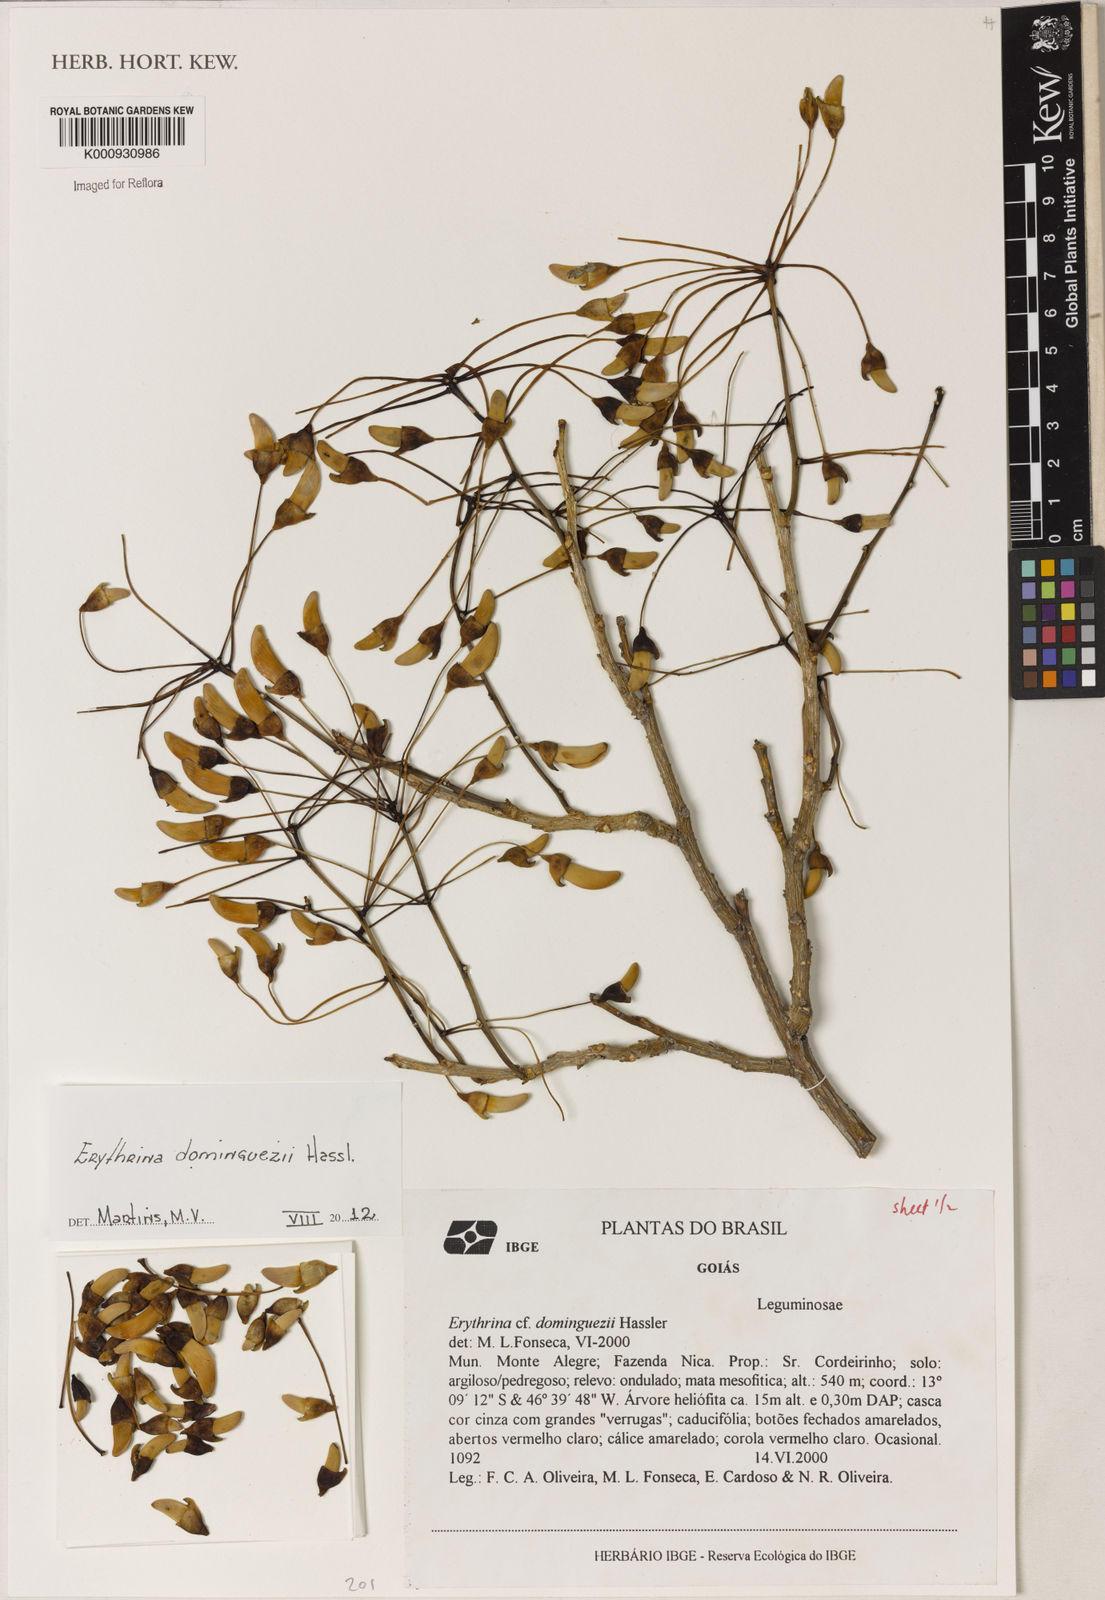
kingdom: Plantae
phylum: Tracheophyta
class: Magnoliopsida
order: Fabales
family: Fabaceae
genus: Erythrina
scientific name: Erythrina mulungu
